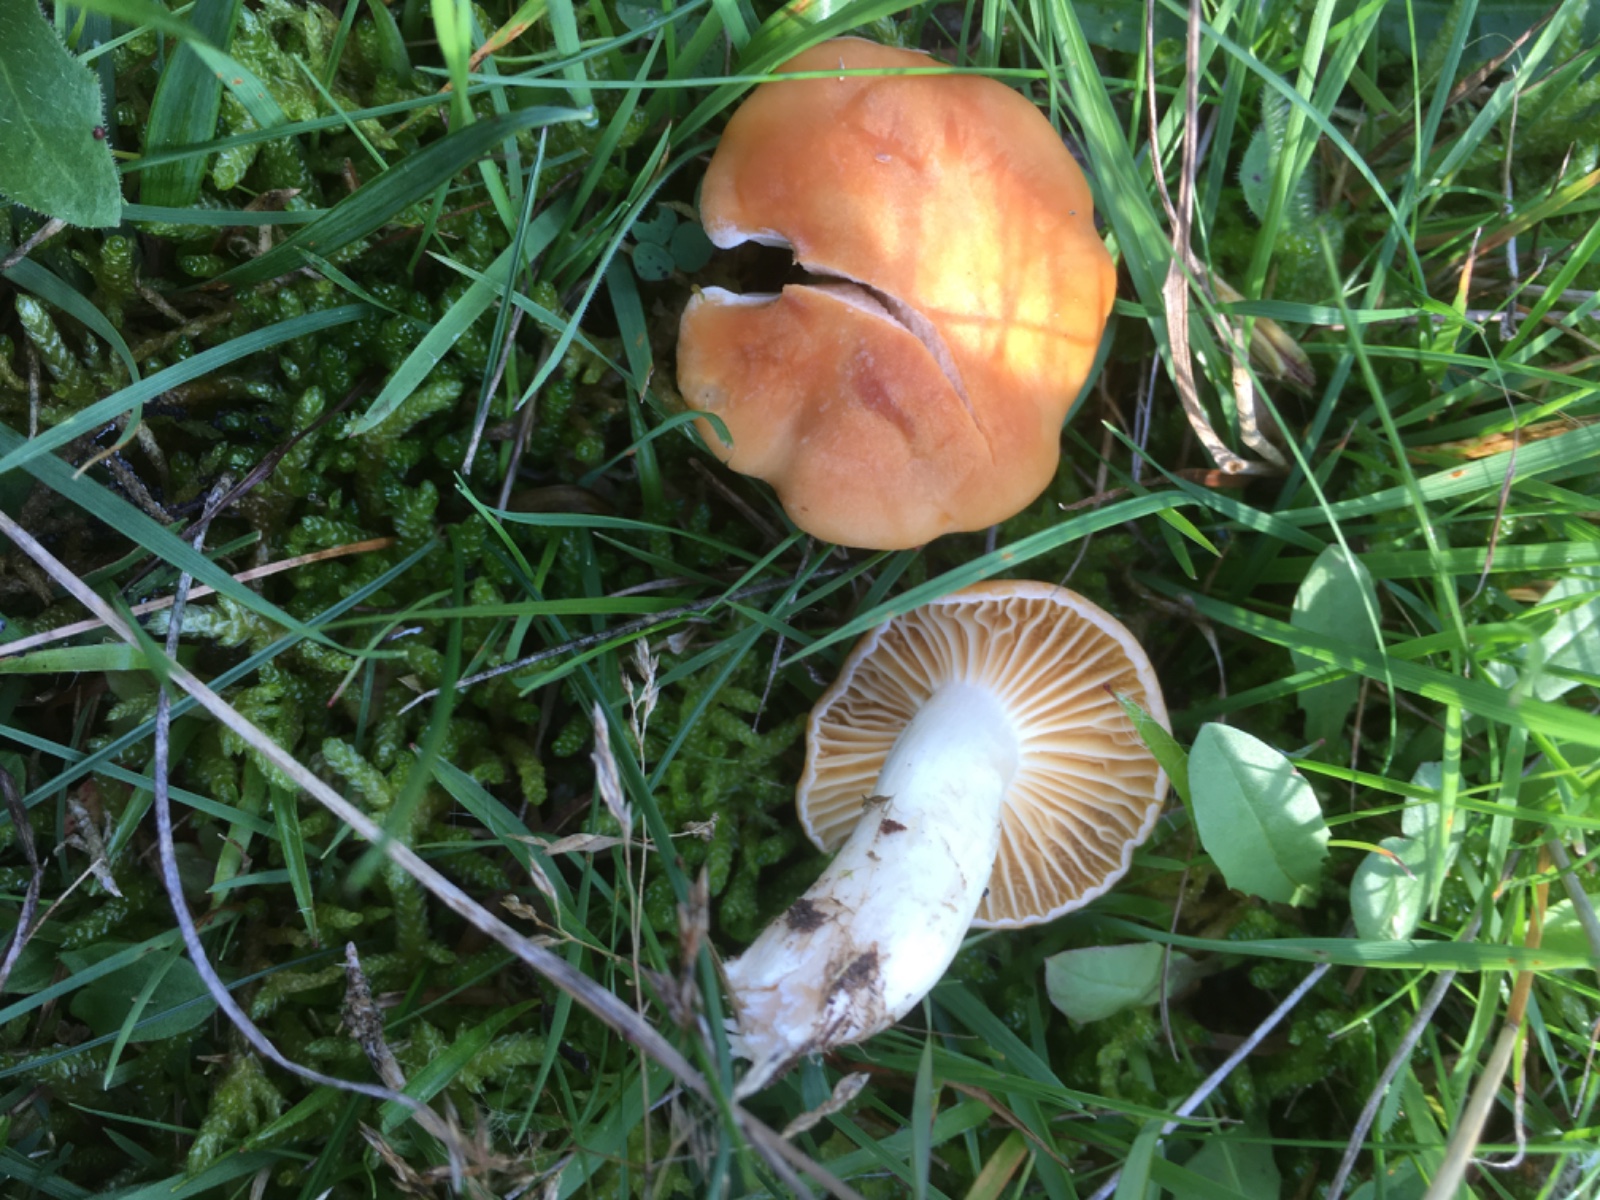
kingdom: Fungi
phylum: Basidiomycota
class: Agaricomycetes
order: Agaricales
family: Hygrophoraceae
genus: Cuphophyllus
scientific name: Cuphophyllus pratensis
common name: eng-vokshat
